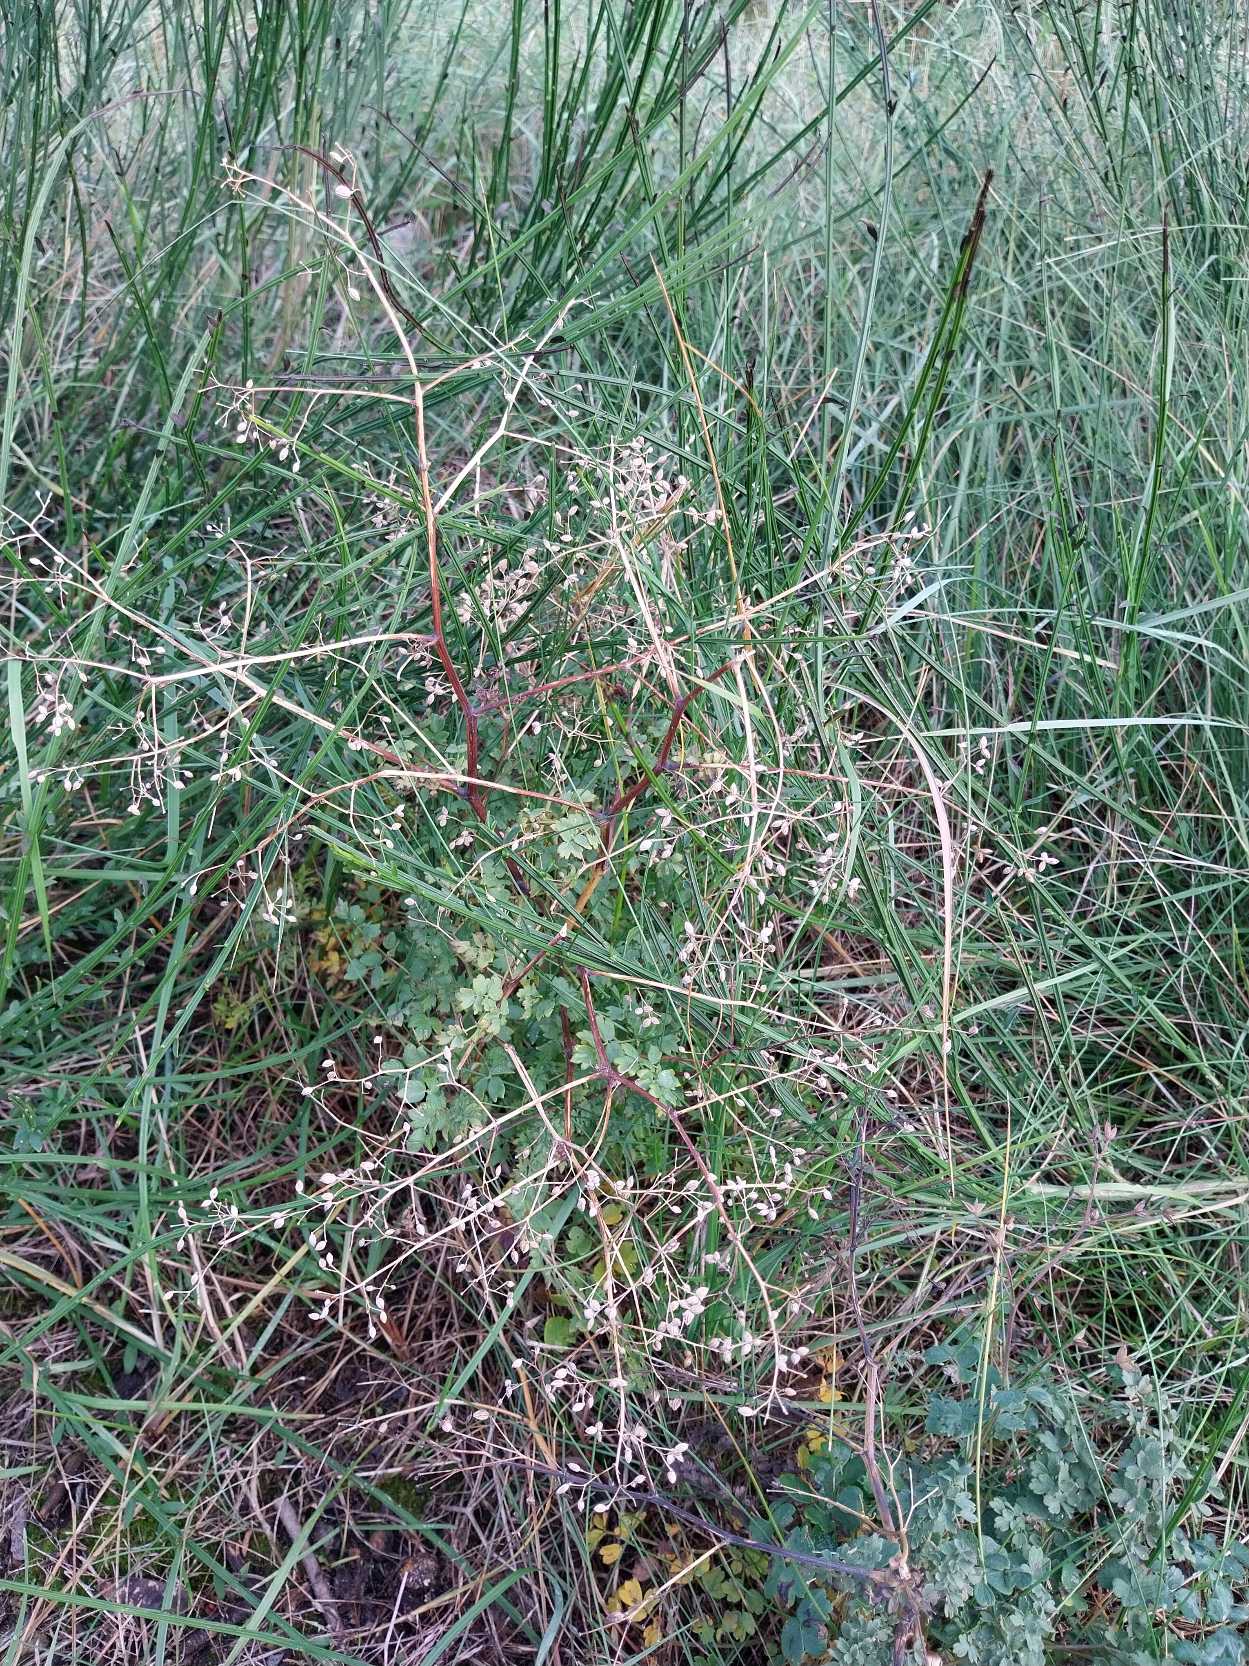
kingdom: Plantae
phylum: Tracheophyta
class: Magnoliopsida
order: Ranunculales
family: Ranunculaceae
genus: Thalictrum
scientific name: Thalictrum minus
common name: Sand-frøstjerne
